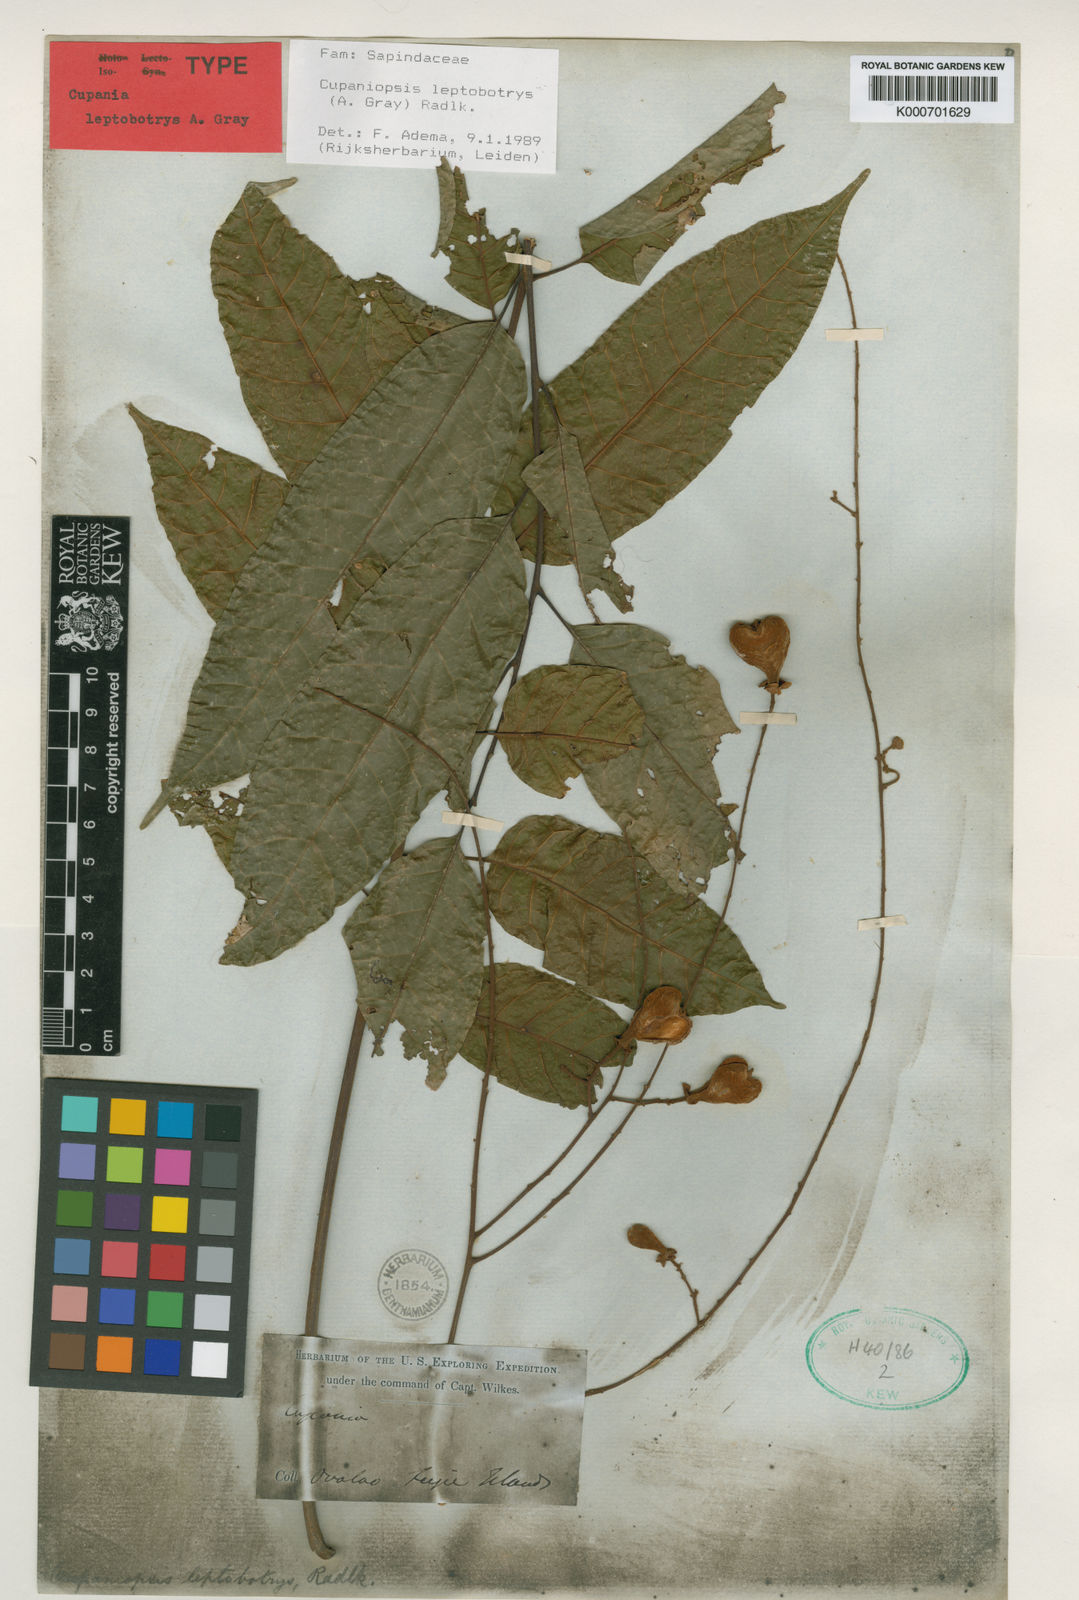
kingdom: Plantae
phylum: Tracheophyta
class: Magnoliopsida
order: Sapindales
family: Sapindaceae
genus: Cupaniopsis
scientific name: Cupaniopsis leptobotrys
